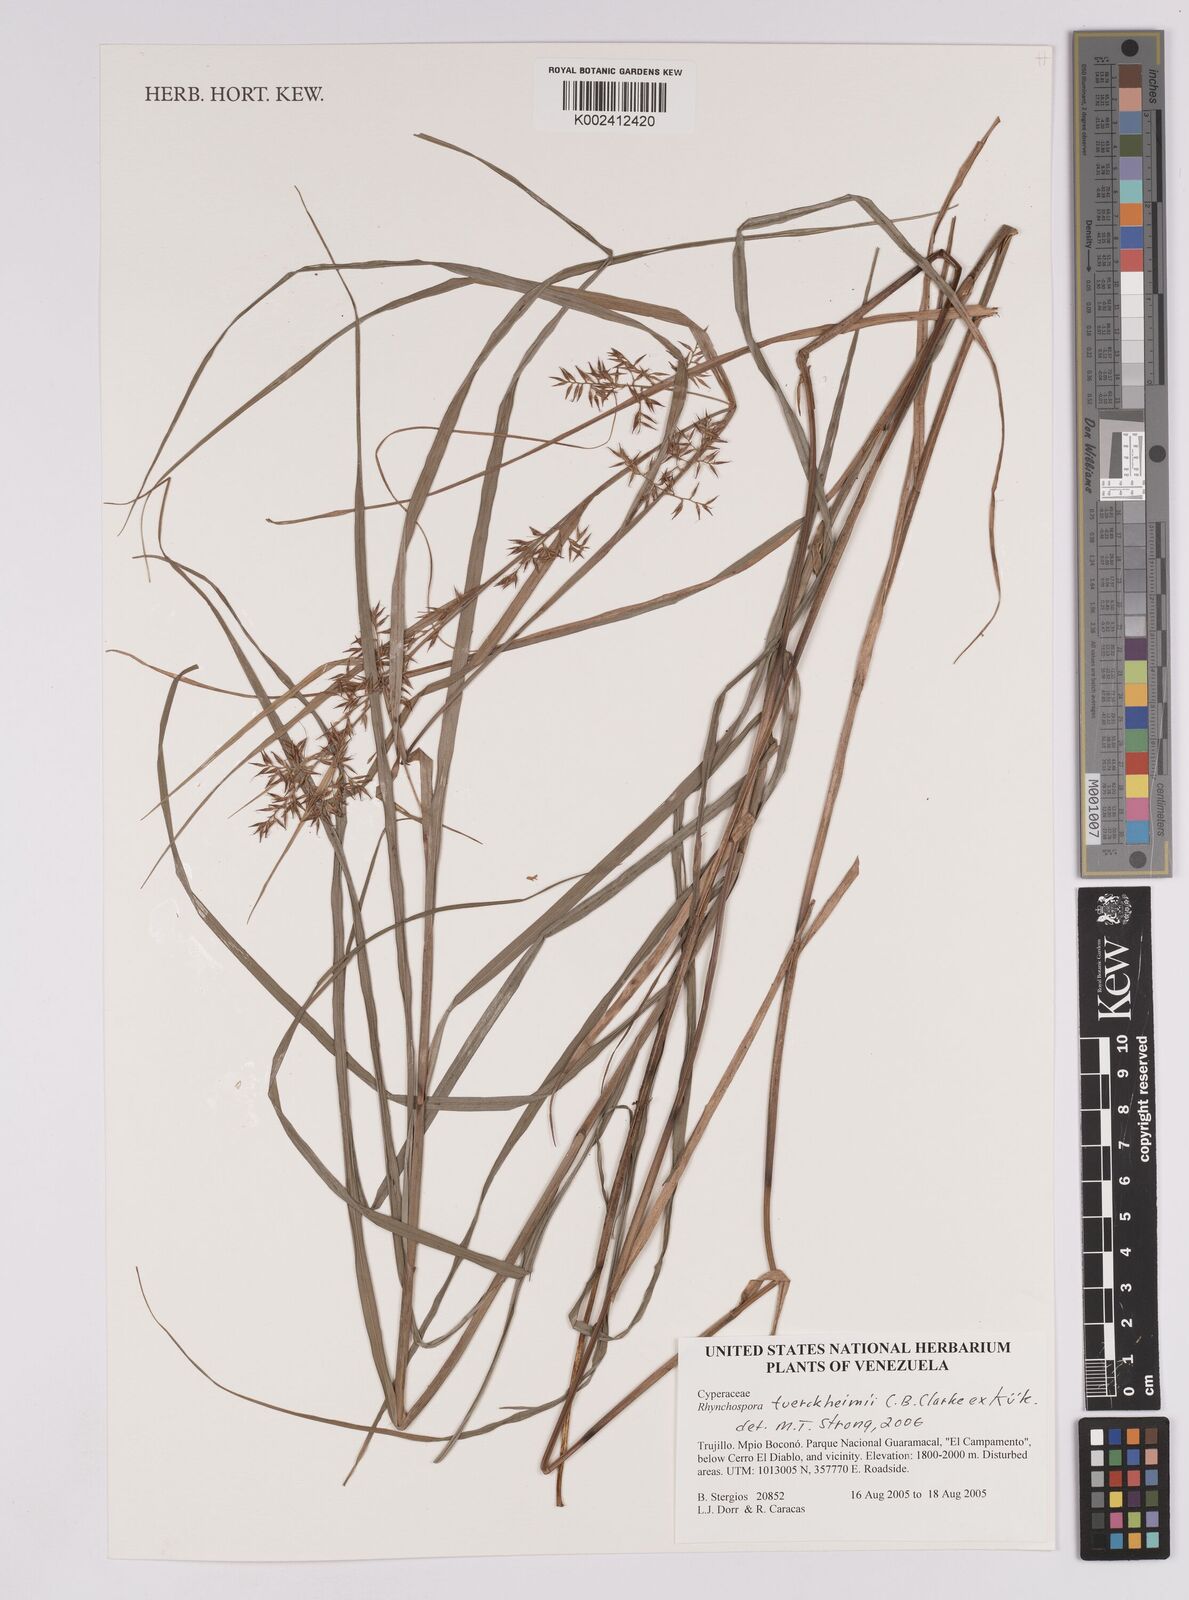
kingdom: Plantae
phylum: Tracheophyta
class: Liliopsida
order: Poales
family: Cyperaceae
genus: Rhynchospora
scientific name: Rhynchospora tuerckheimii
